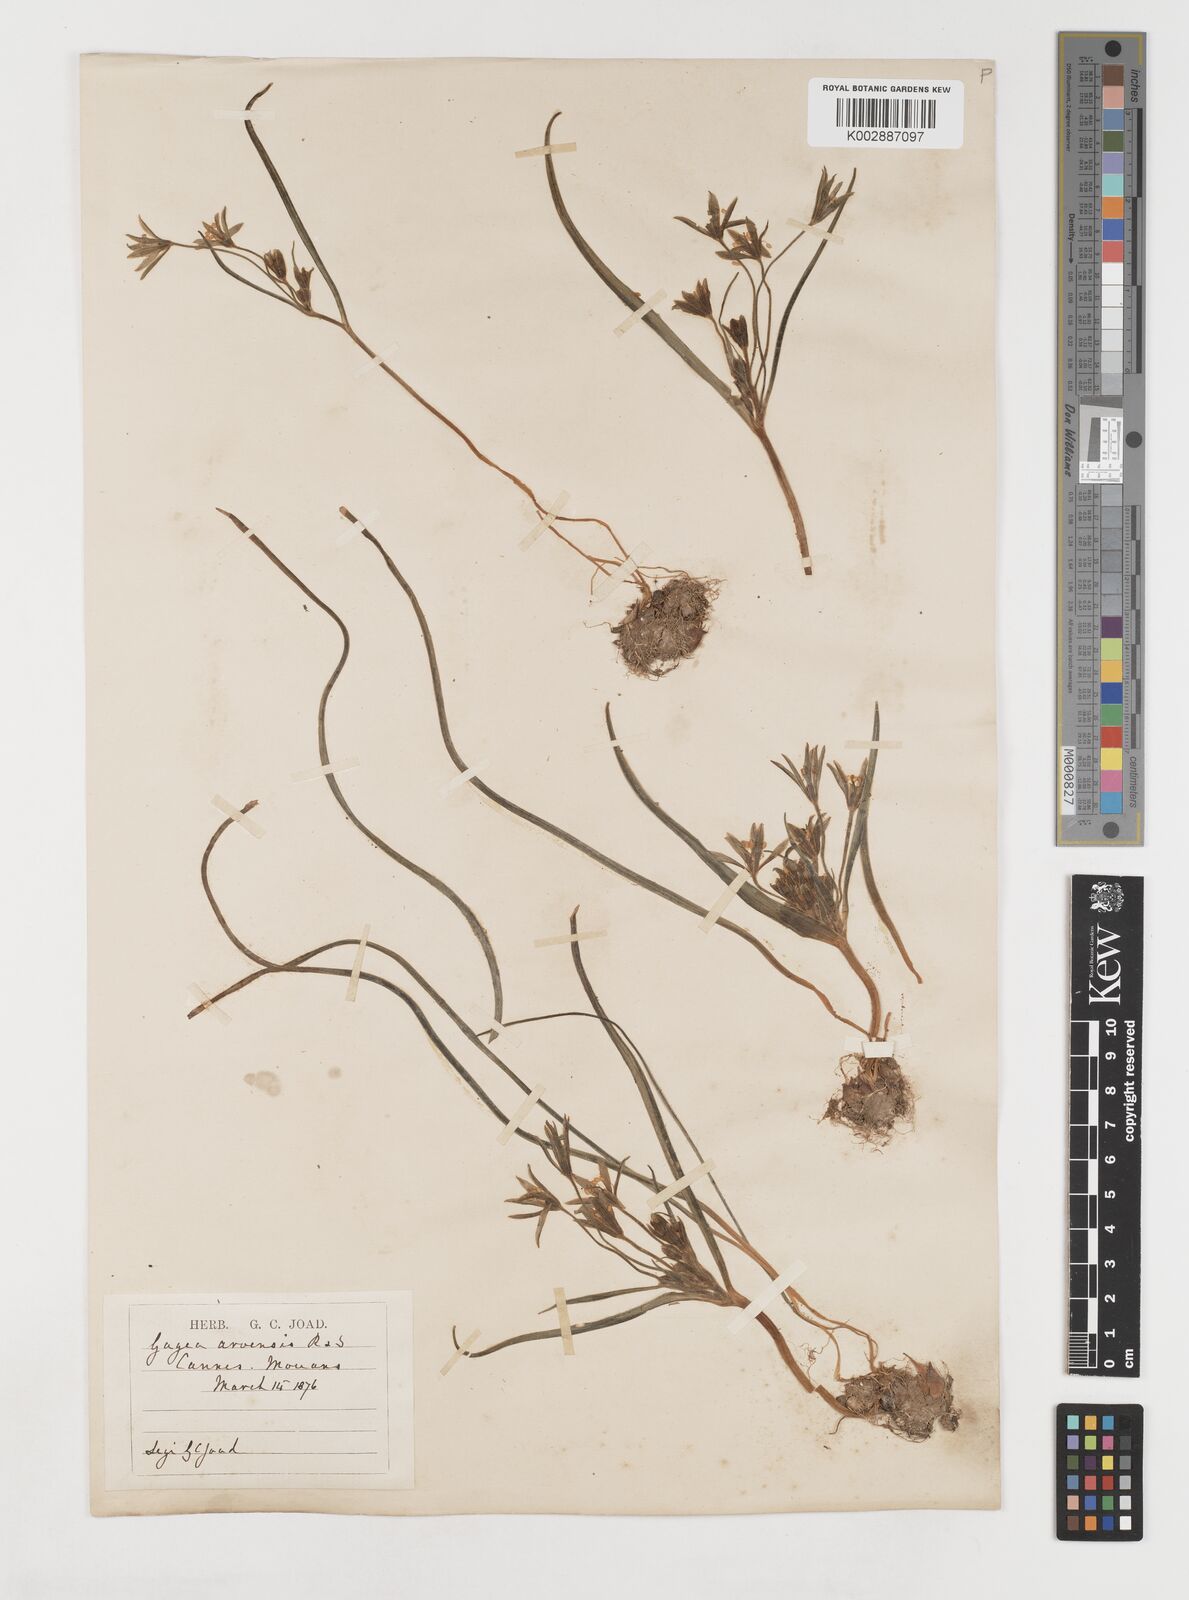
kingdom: Plantae
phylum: Tracheophyta
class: Liliopsida
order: Liliales
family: Liliaceae
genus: Gagea
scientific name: Gagea minima
